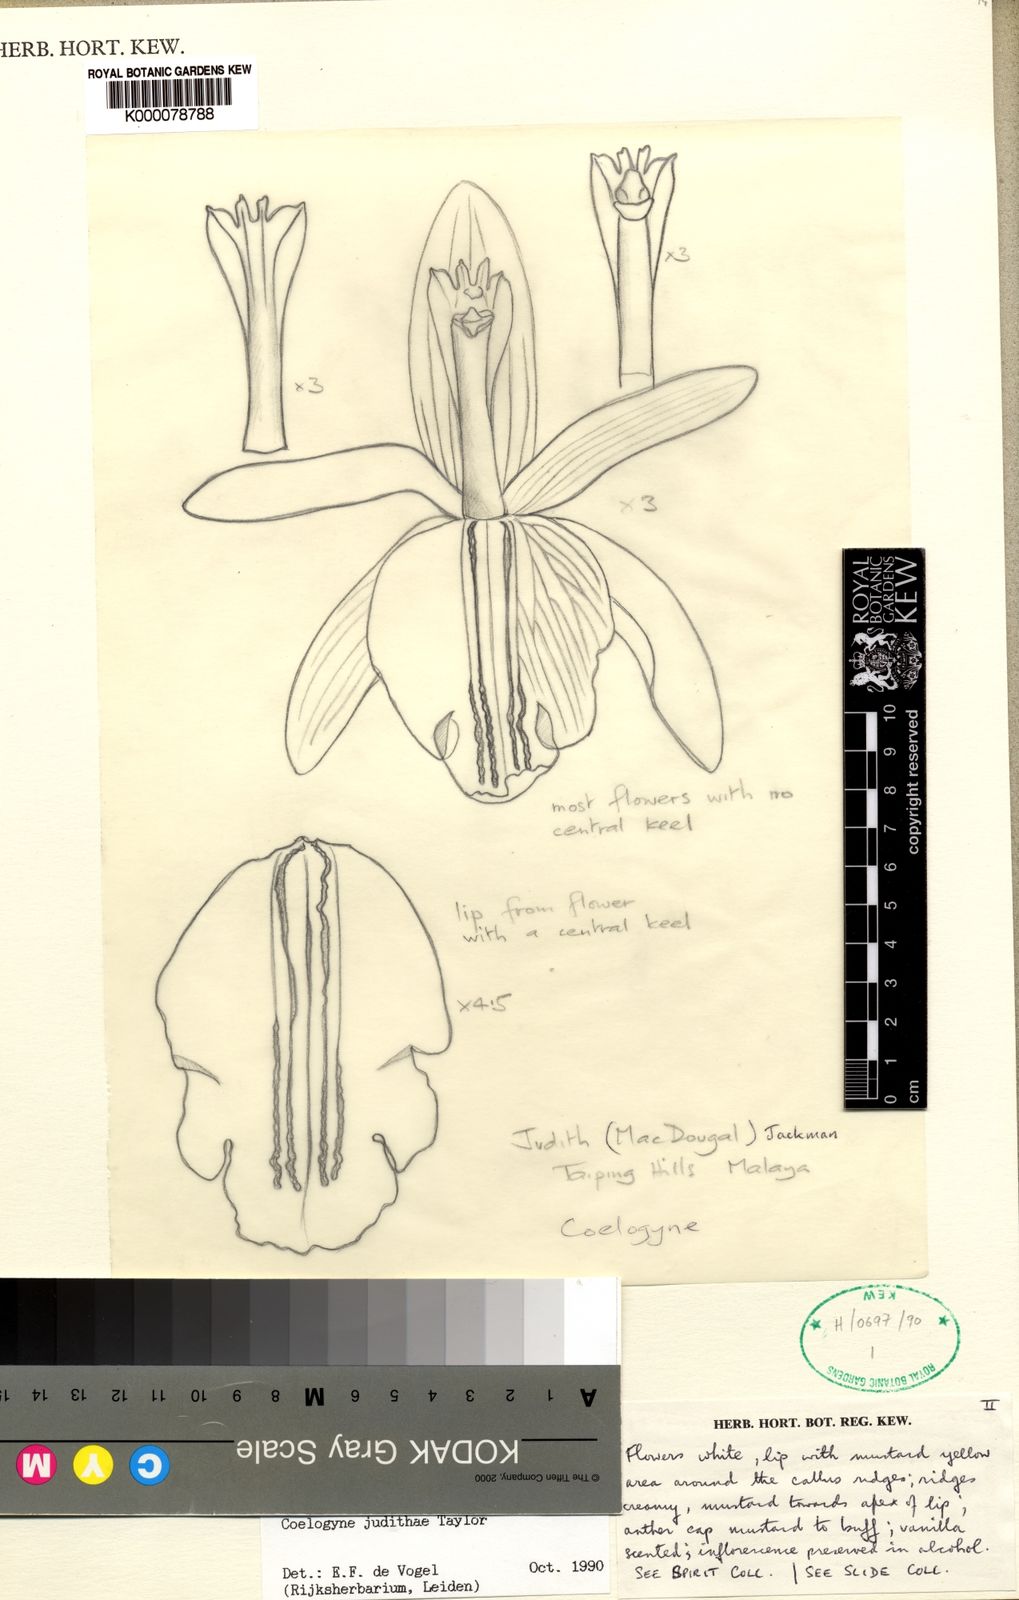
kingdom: Plantae
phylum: Tracheophyta
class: Liliopsida
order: Asparagales
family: Orchidaceae
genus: Coelogyne
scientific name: Coelogyne rhabdobulbon
